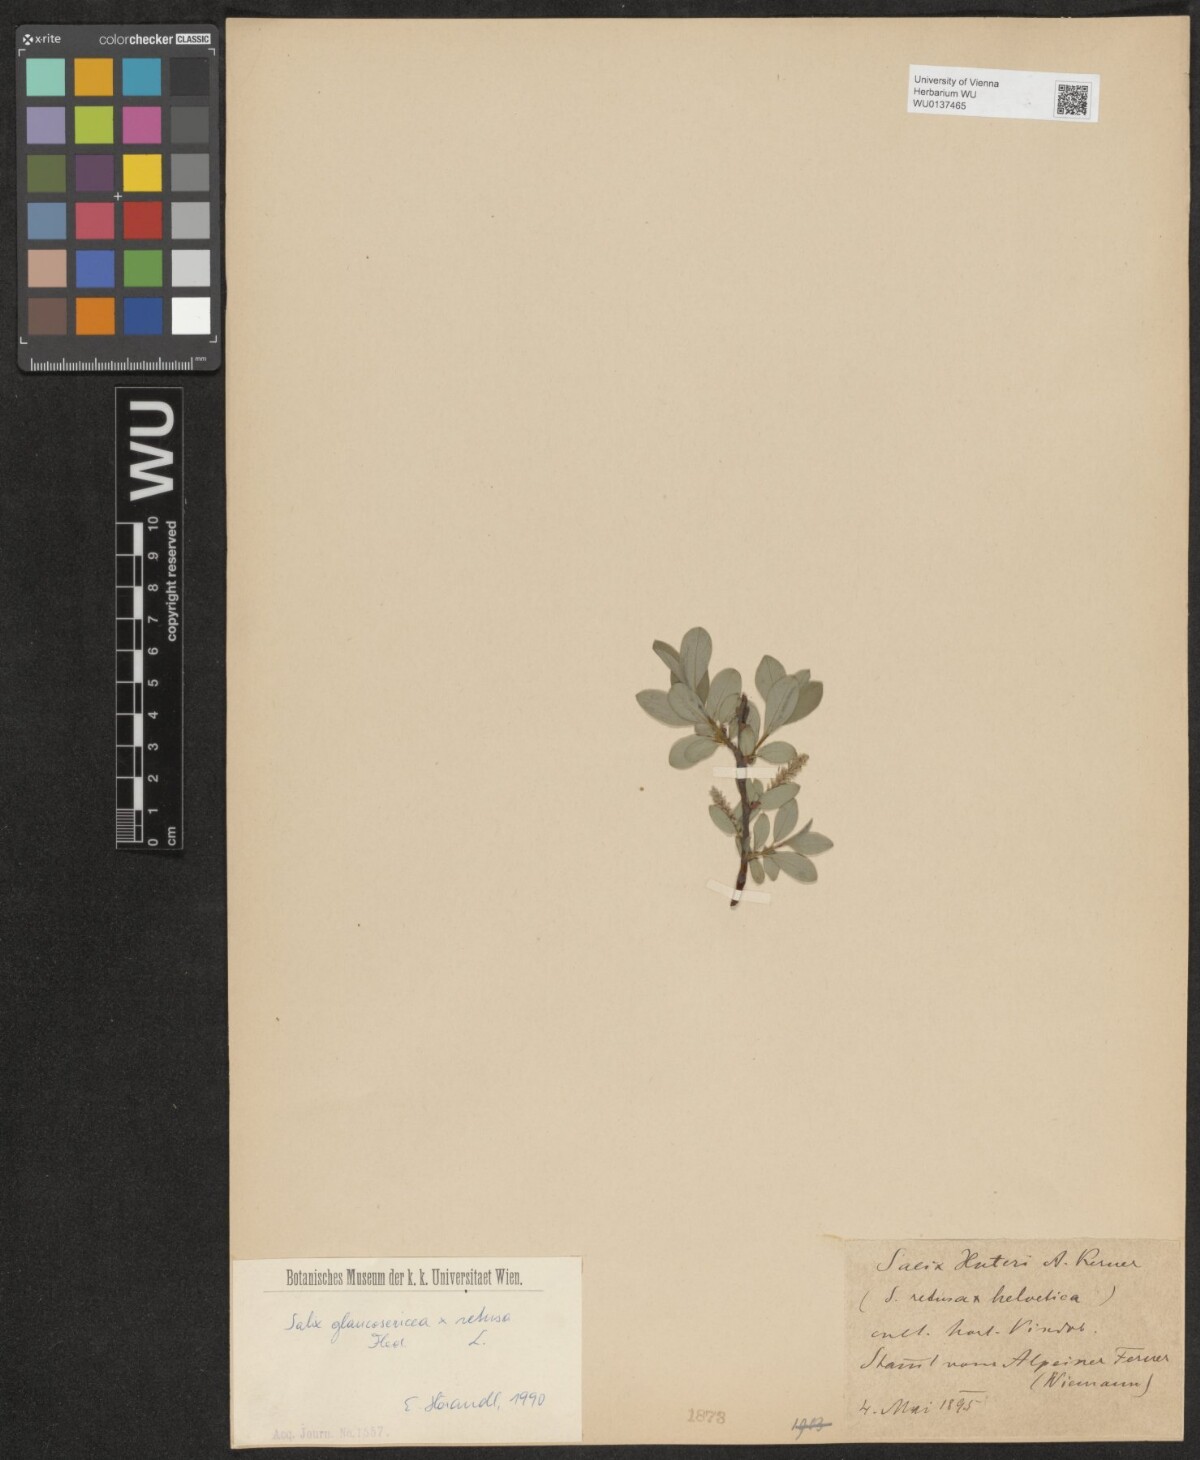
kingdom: Plantae
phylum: Tracheophyta
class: Magnoliopsida
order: Malpighiales
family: Salicaceae
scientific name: Salicaceae
